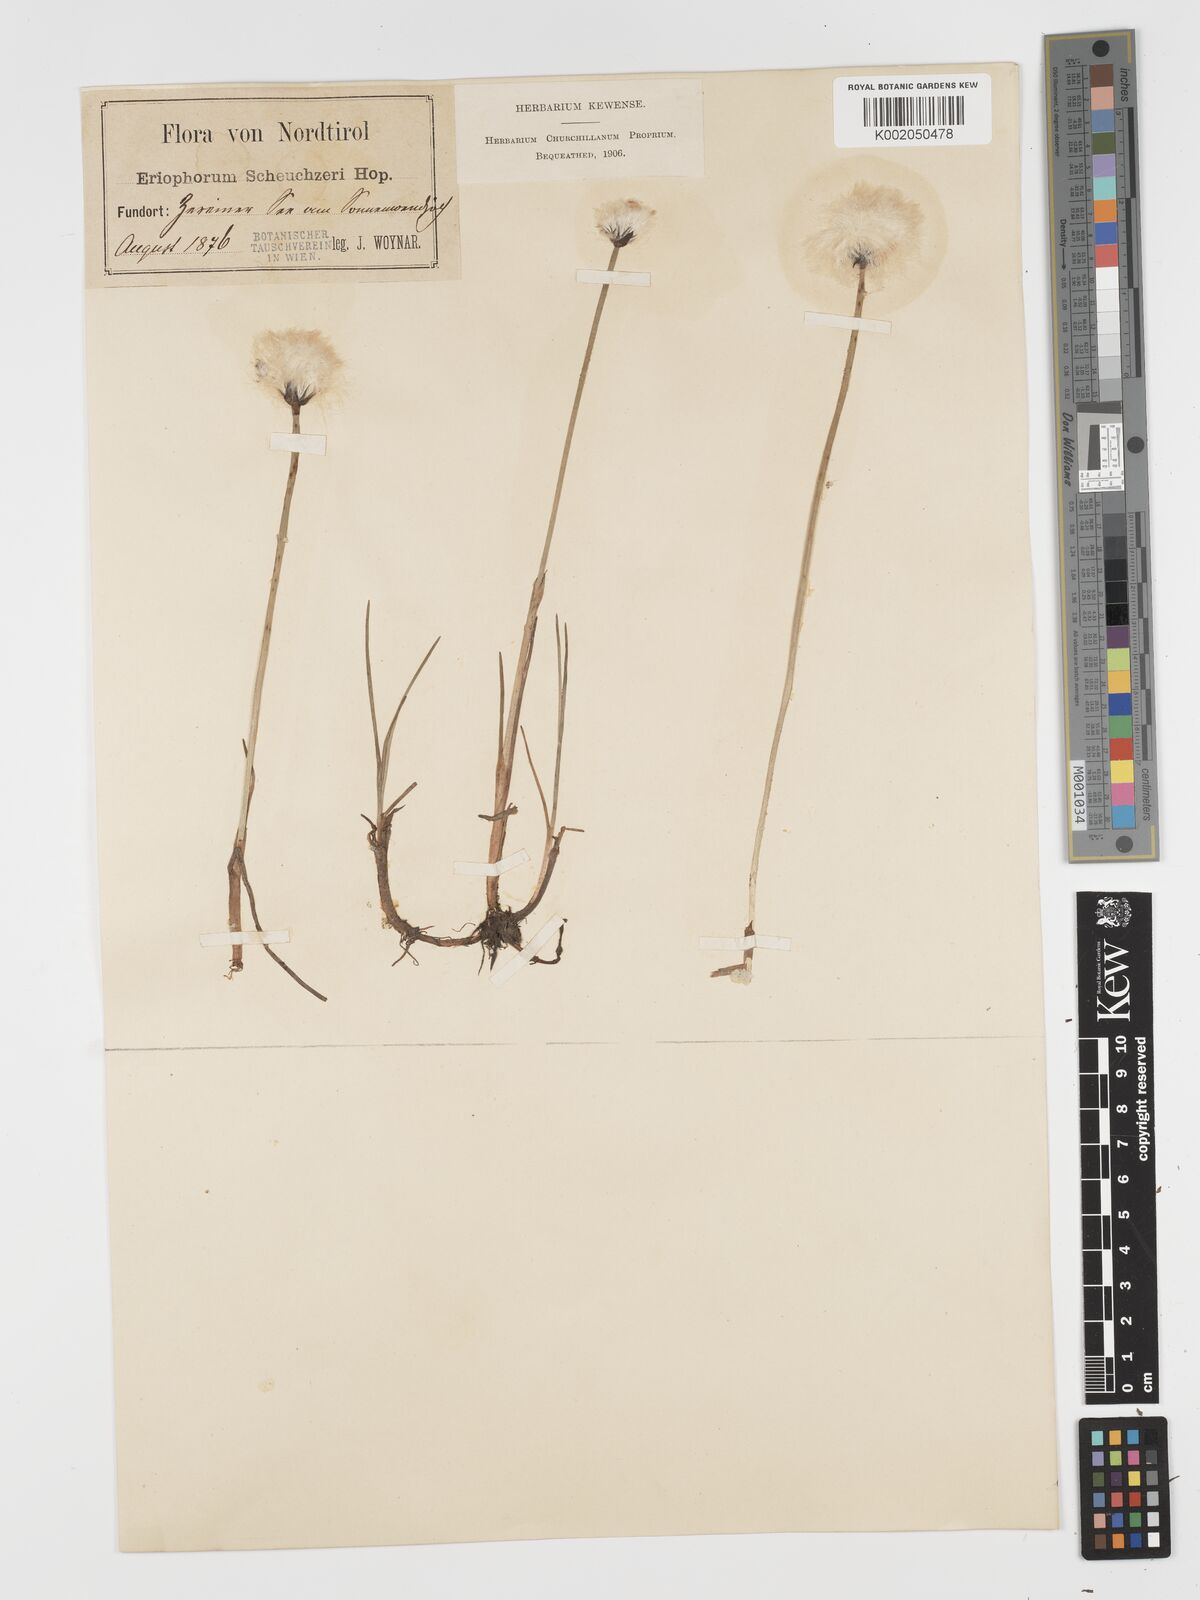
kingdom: Plantae
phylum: Tracheophyta
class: Liliopsida
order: Poales
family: Cyperaceae
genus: Eriophorum
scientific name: Eriophorum scheuchzeri
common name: Scheuchzer's cottongrass
